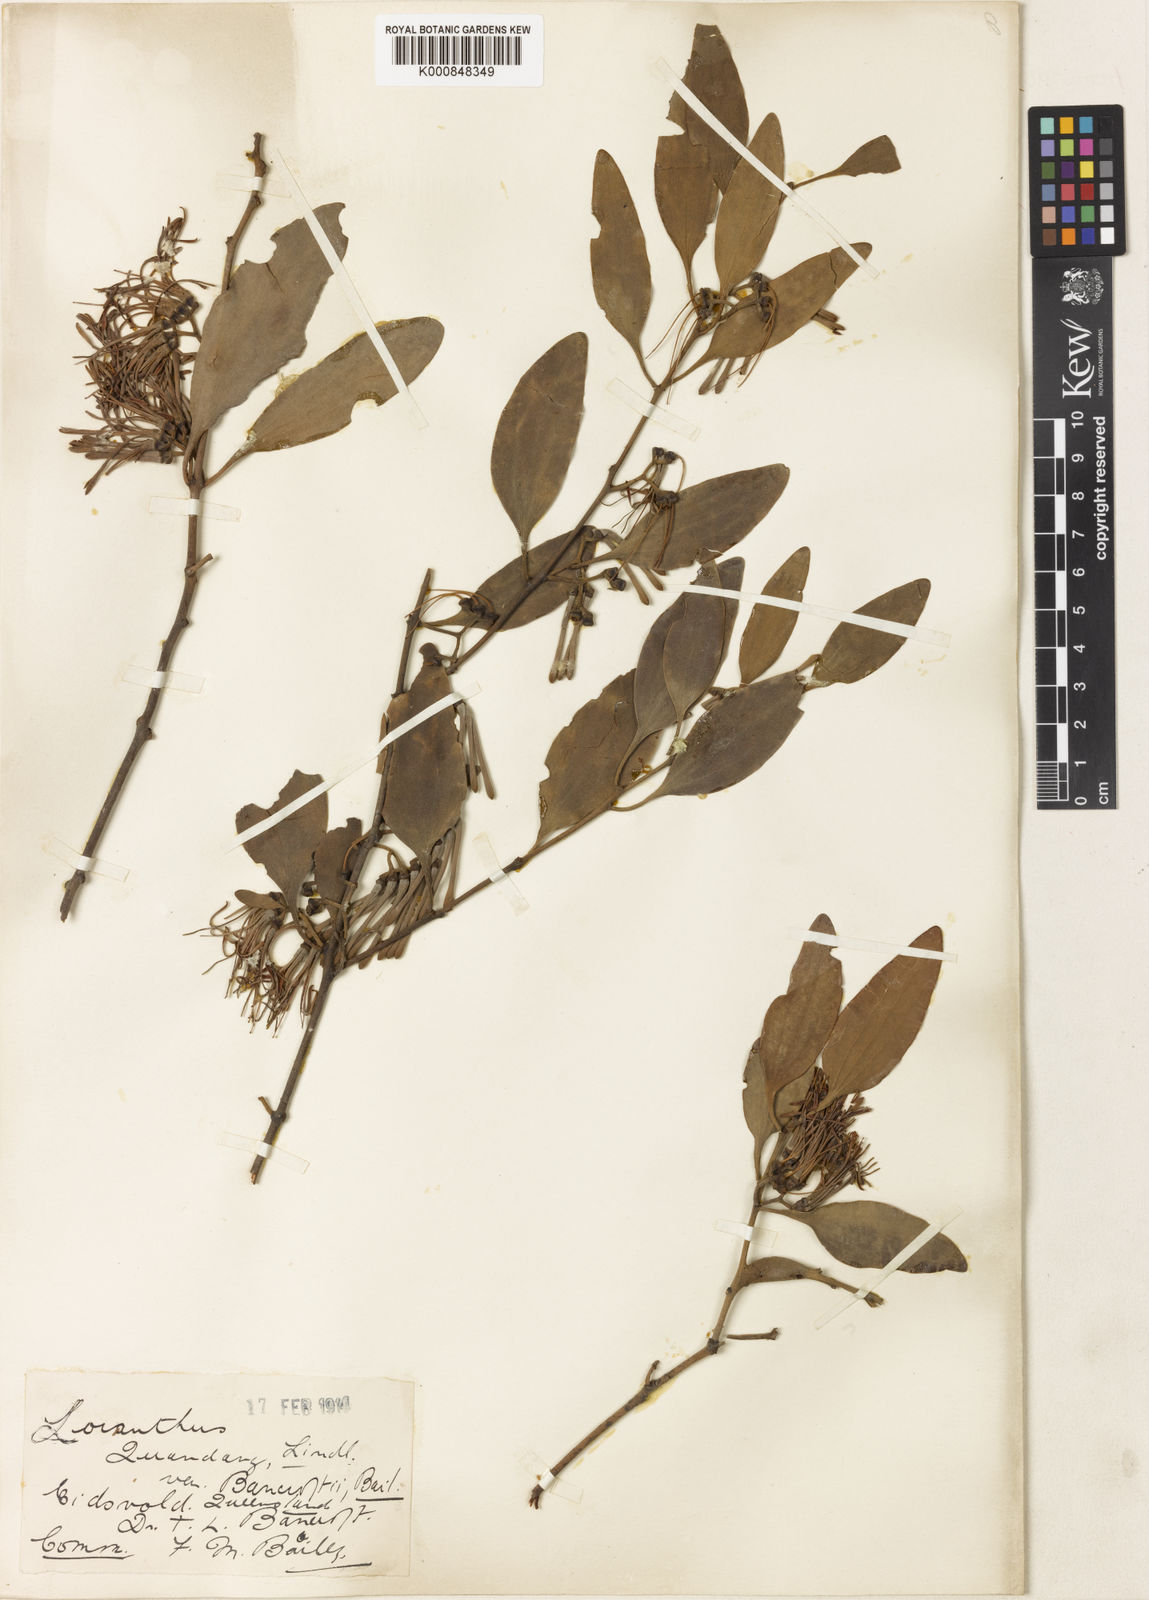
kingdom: Plantae
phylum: Tracheophyta
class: Magnoliopsida
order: Santalales
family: Loranthaceae
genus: Amyema
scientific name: Amyema quandang
